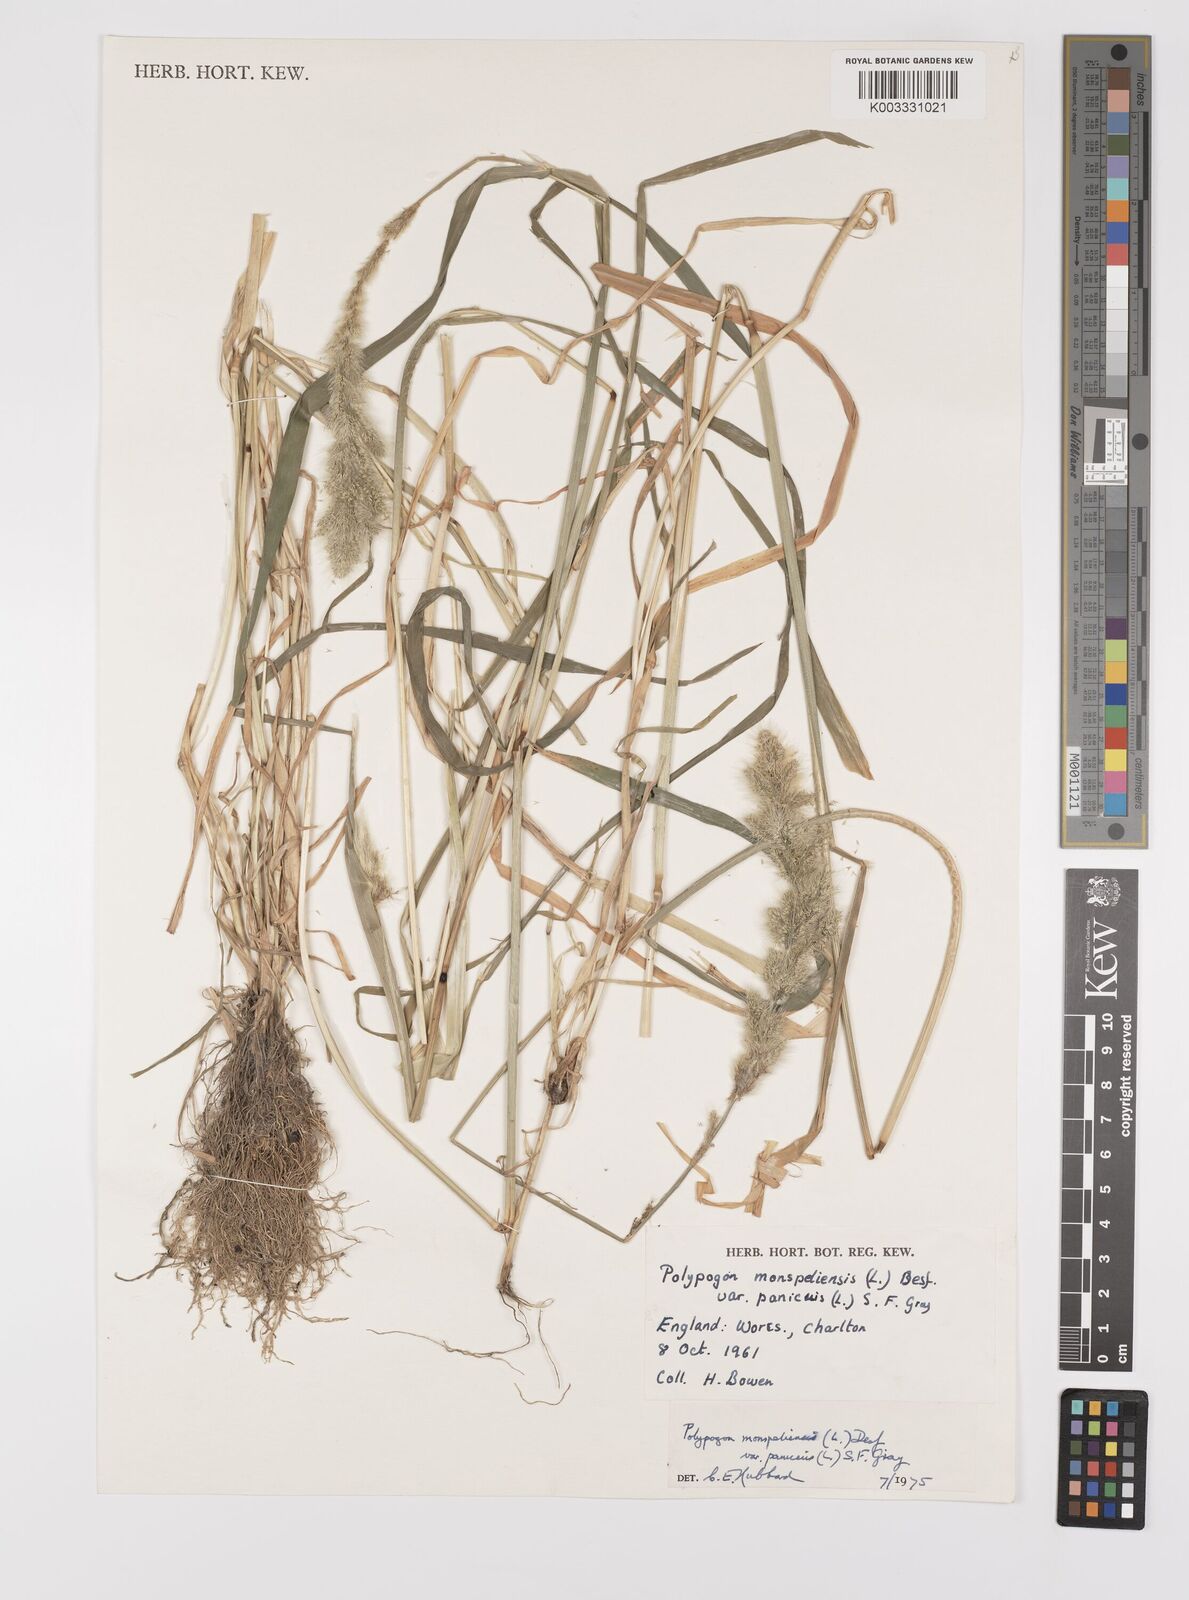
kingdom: Plantae
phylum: Tracheophyta
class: Liliopsida
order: Poales
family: Poaceae
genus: Polypogon
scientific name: Polypogon monspeliensis
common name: Annual rabbitsfoot grass
